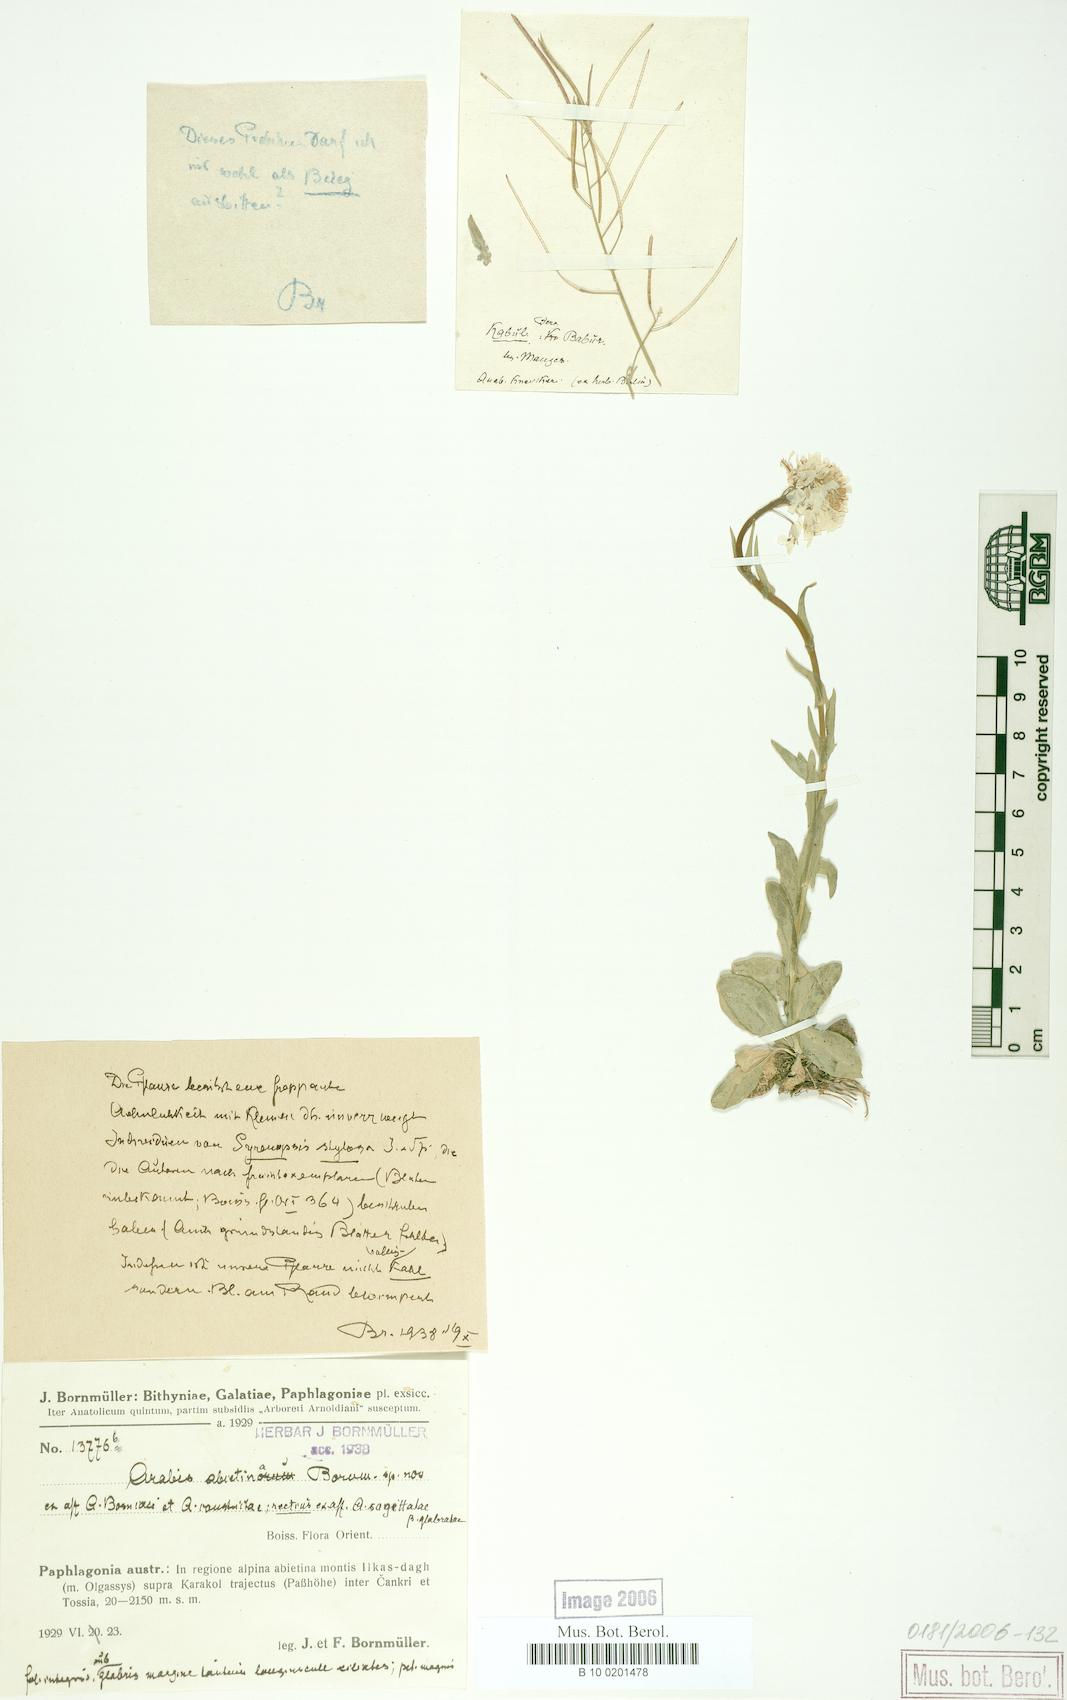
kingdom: Plantae
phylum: Tracheophyta
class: Magnoliopsida
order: Brassicales
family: Brassicaceae
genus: Arabis
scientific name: Arabis sudetica
